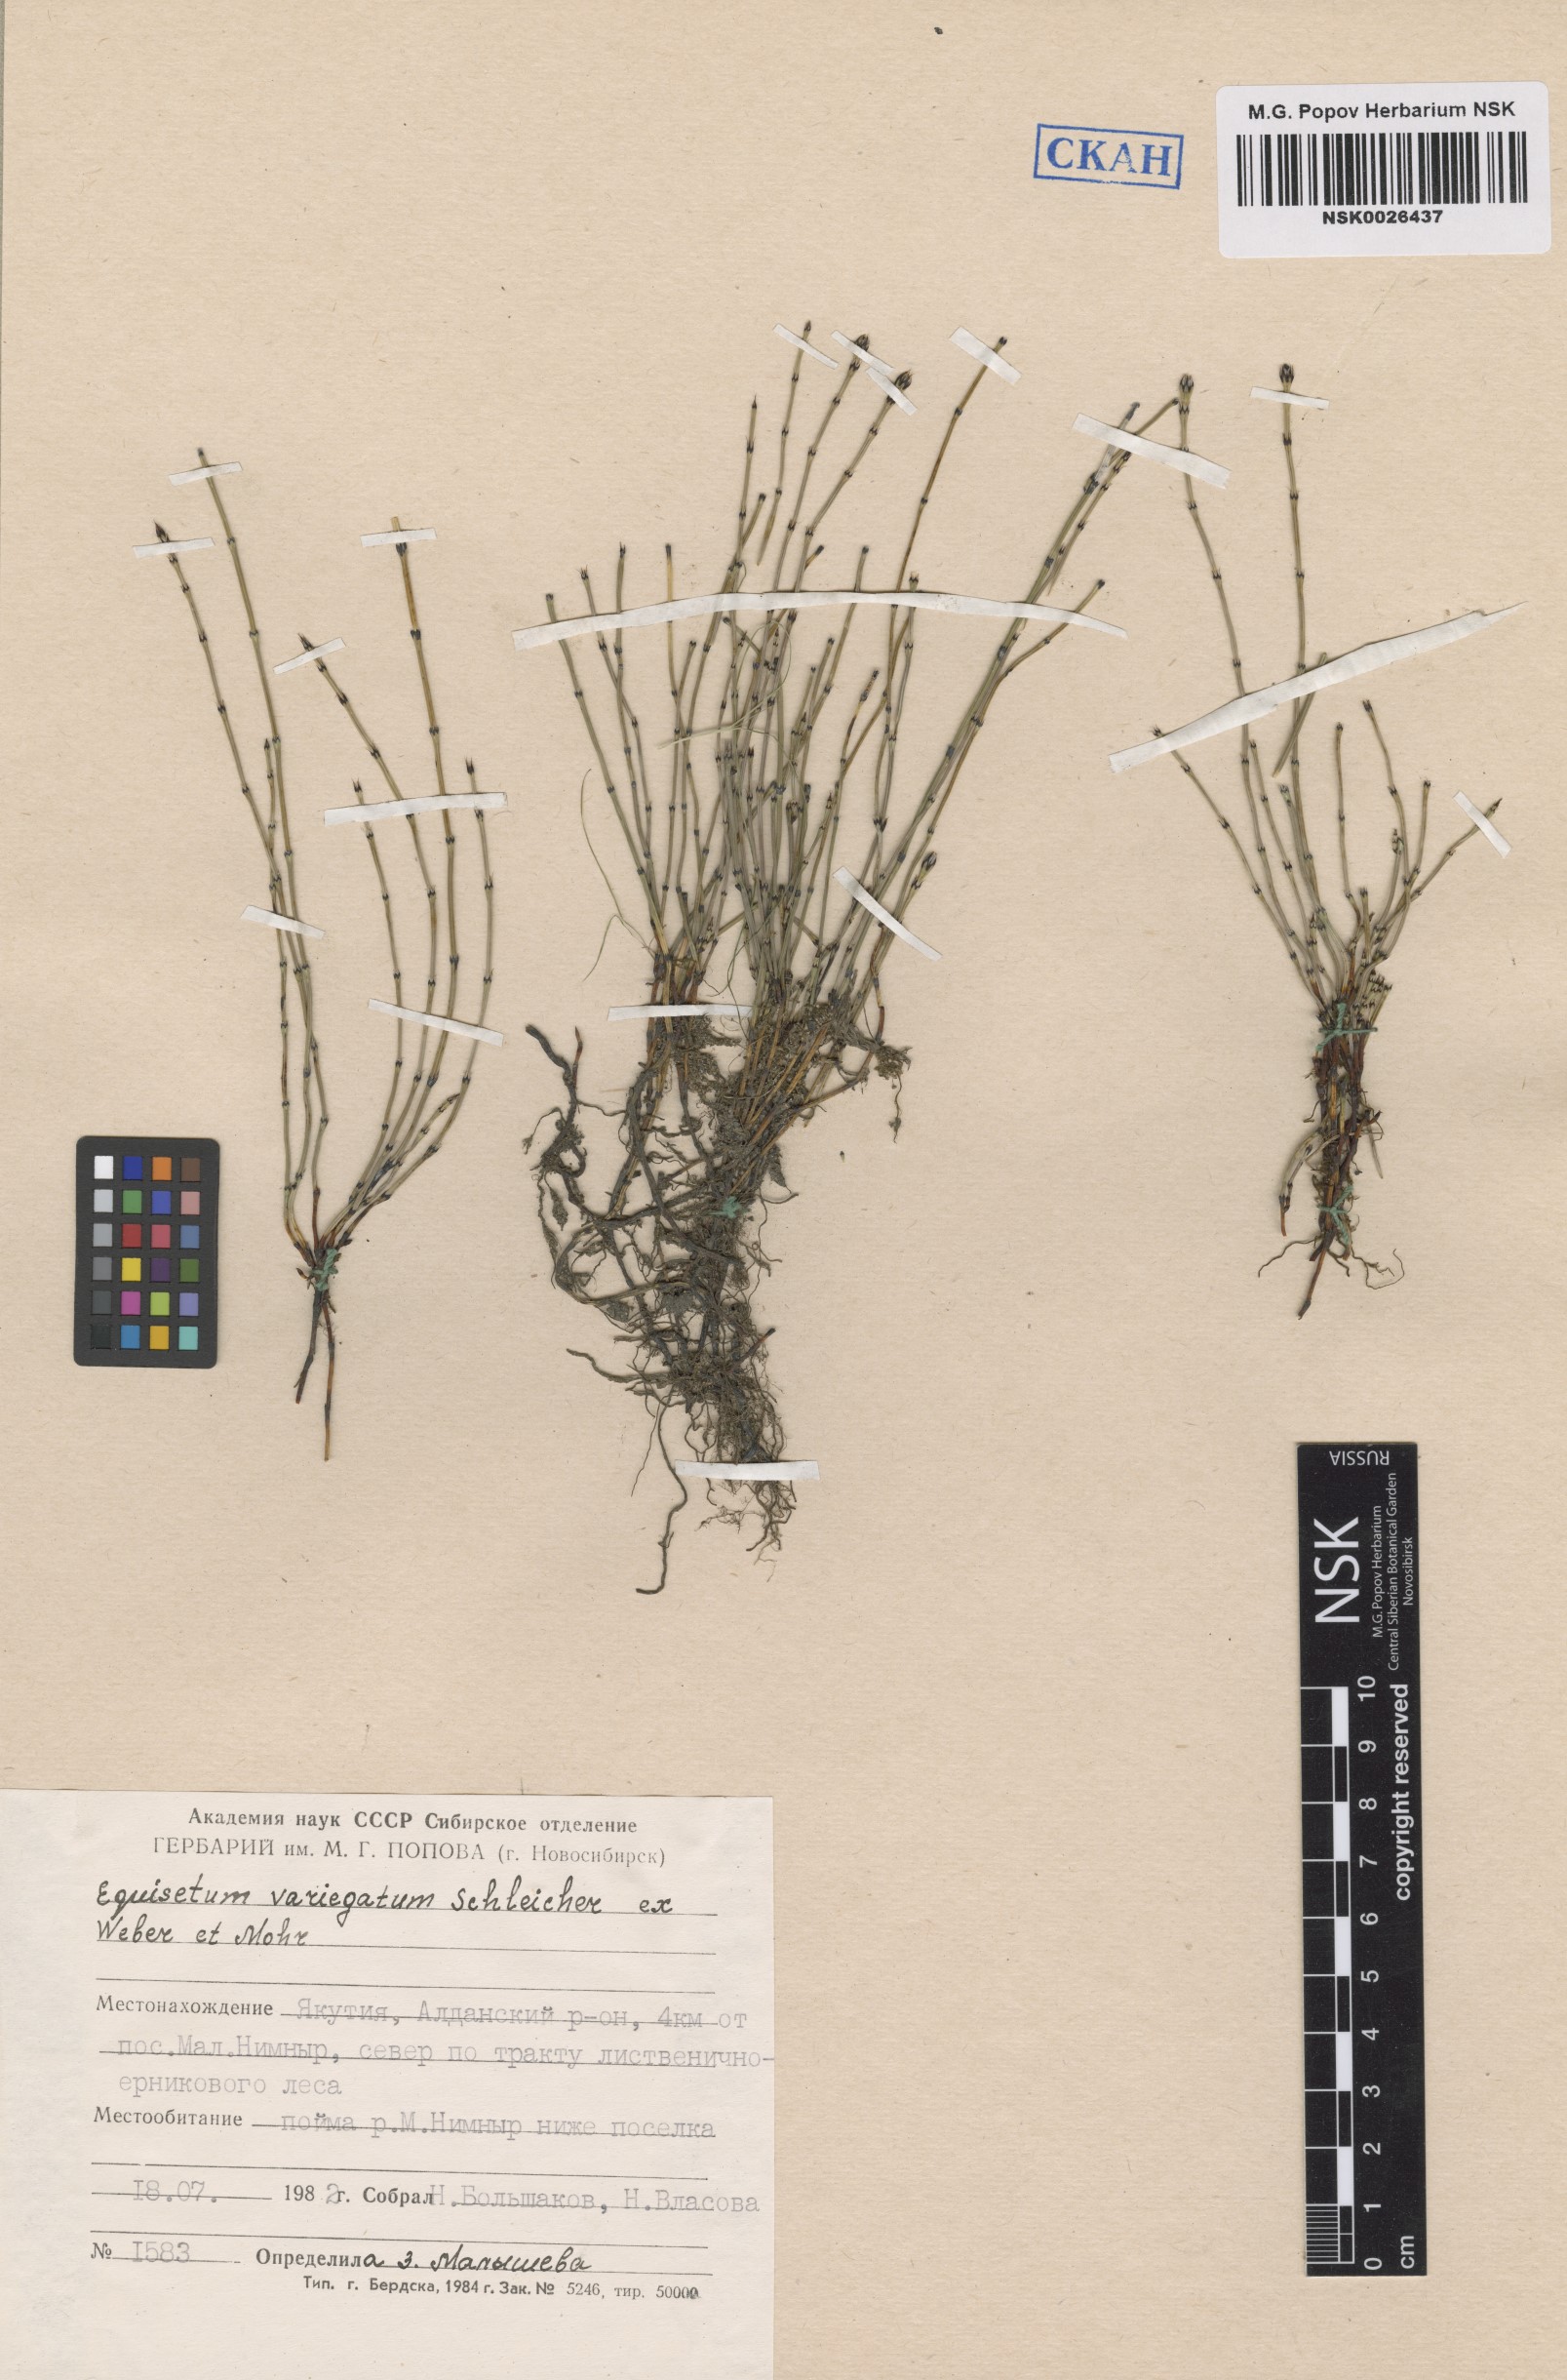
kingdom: Plantae
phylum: Tracheophyta
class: Polypodiopsida
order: Equisetales
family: Equisetaceae
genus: Equisetum
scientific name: Equisetum variegatum
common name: Variegated horsetail
